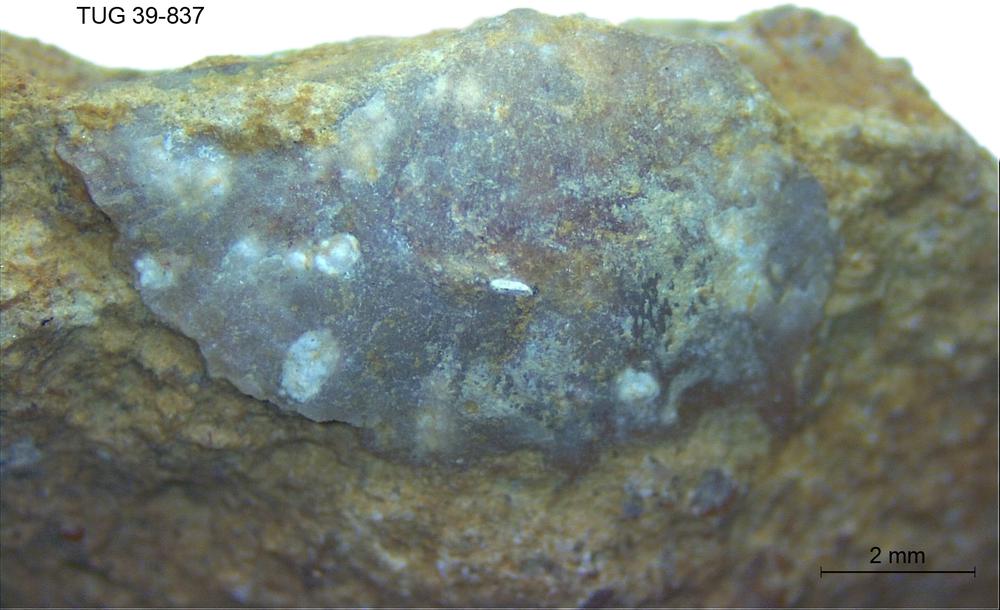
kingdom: Animalia
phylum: Brachiopoda
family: Oldhaminidae
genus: Eoplectodonta
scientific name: Eoplectodonta
